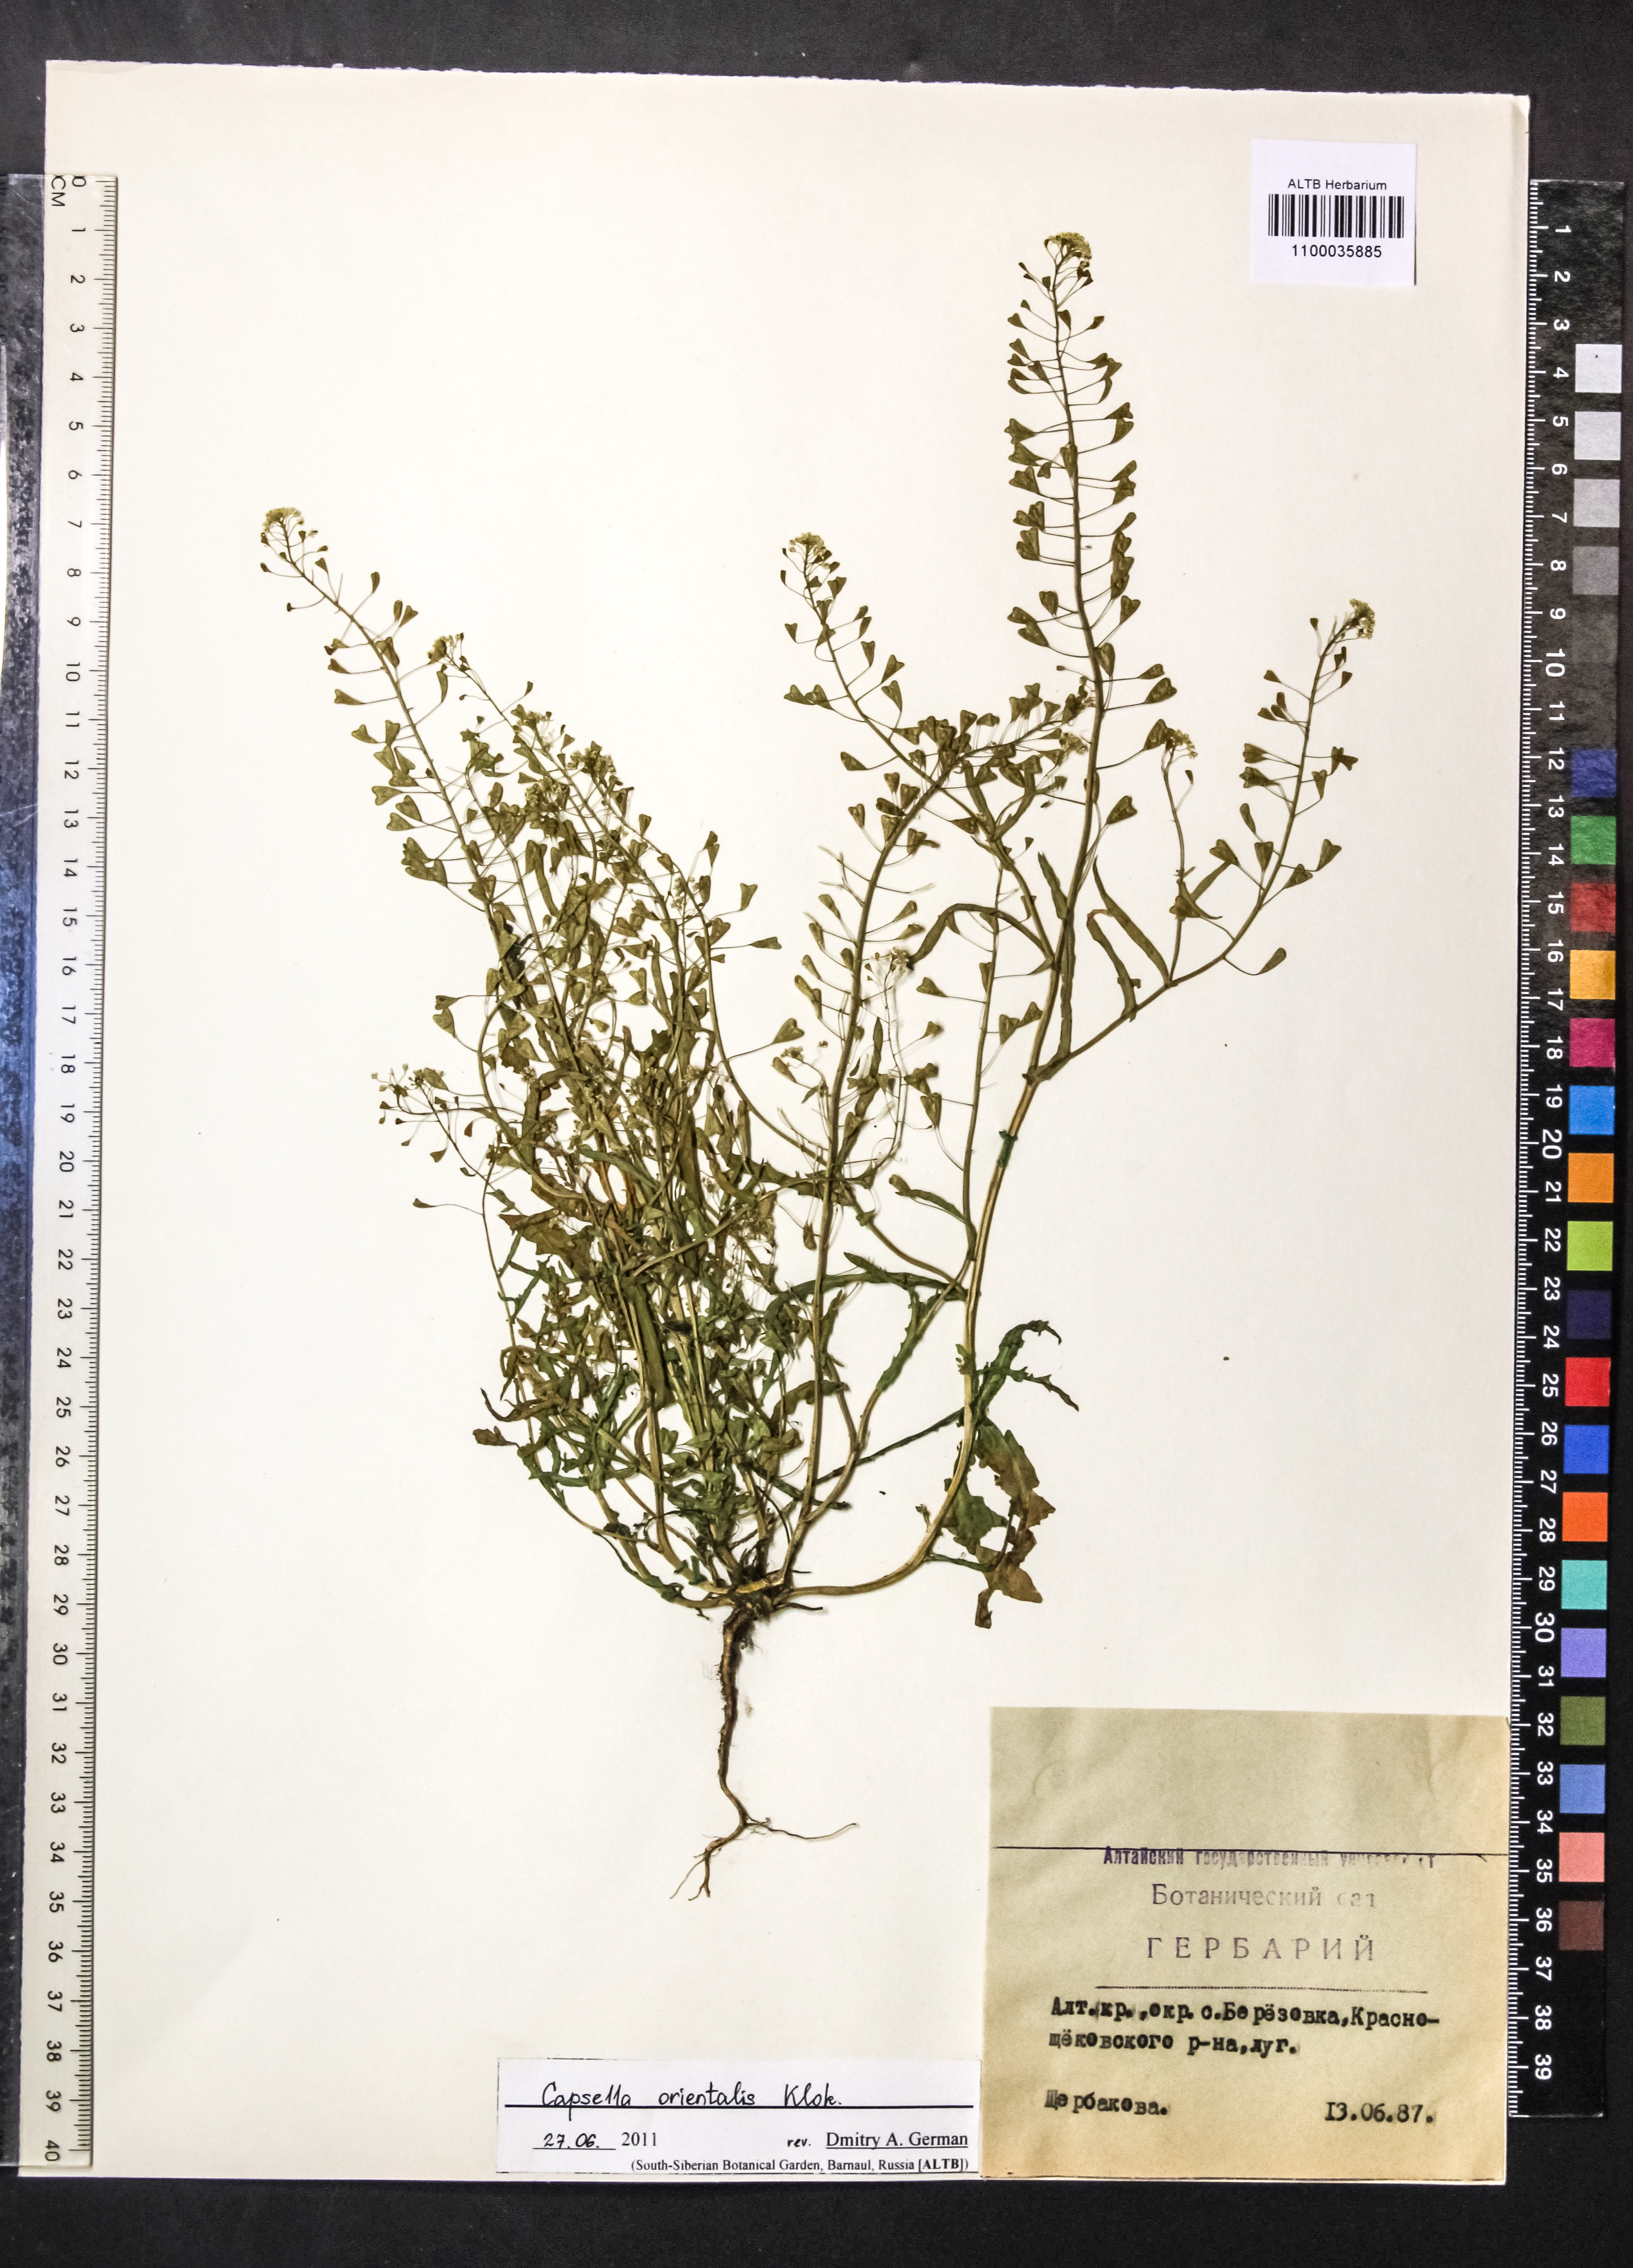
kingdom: Plantae
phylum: Tracheophyta
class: Magnoliopsida
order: Brassicales
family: Brassicaceae
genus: Capsella
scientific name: Capsella orientalis
